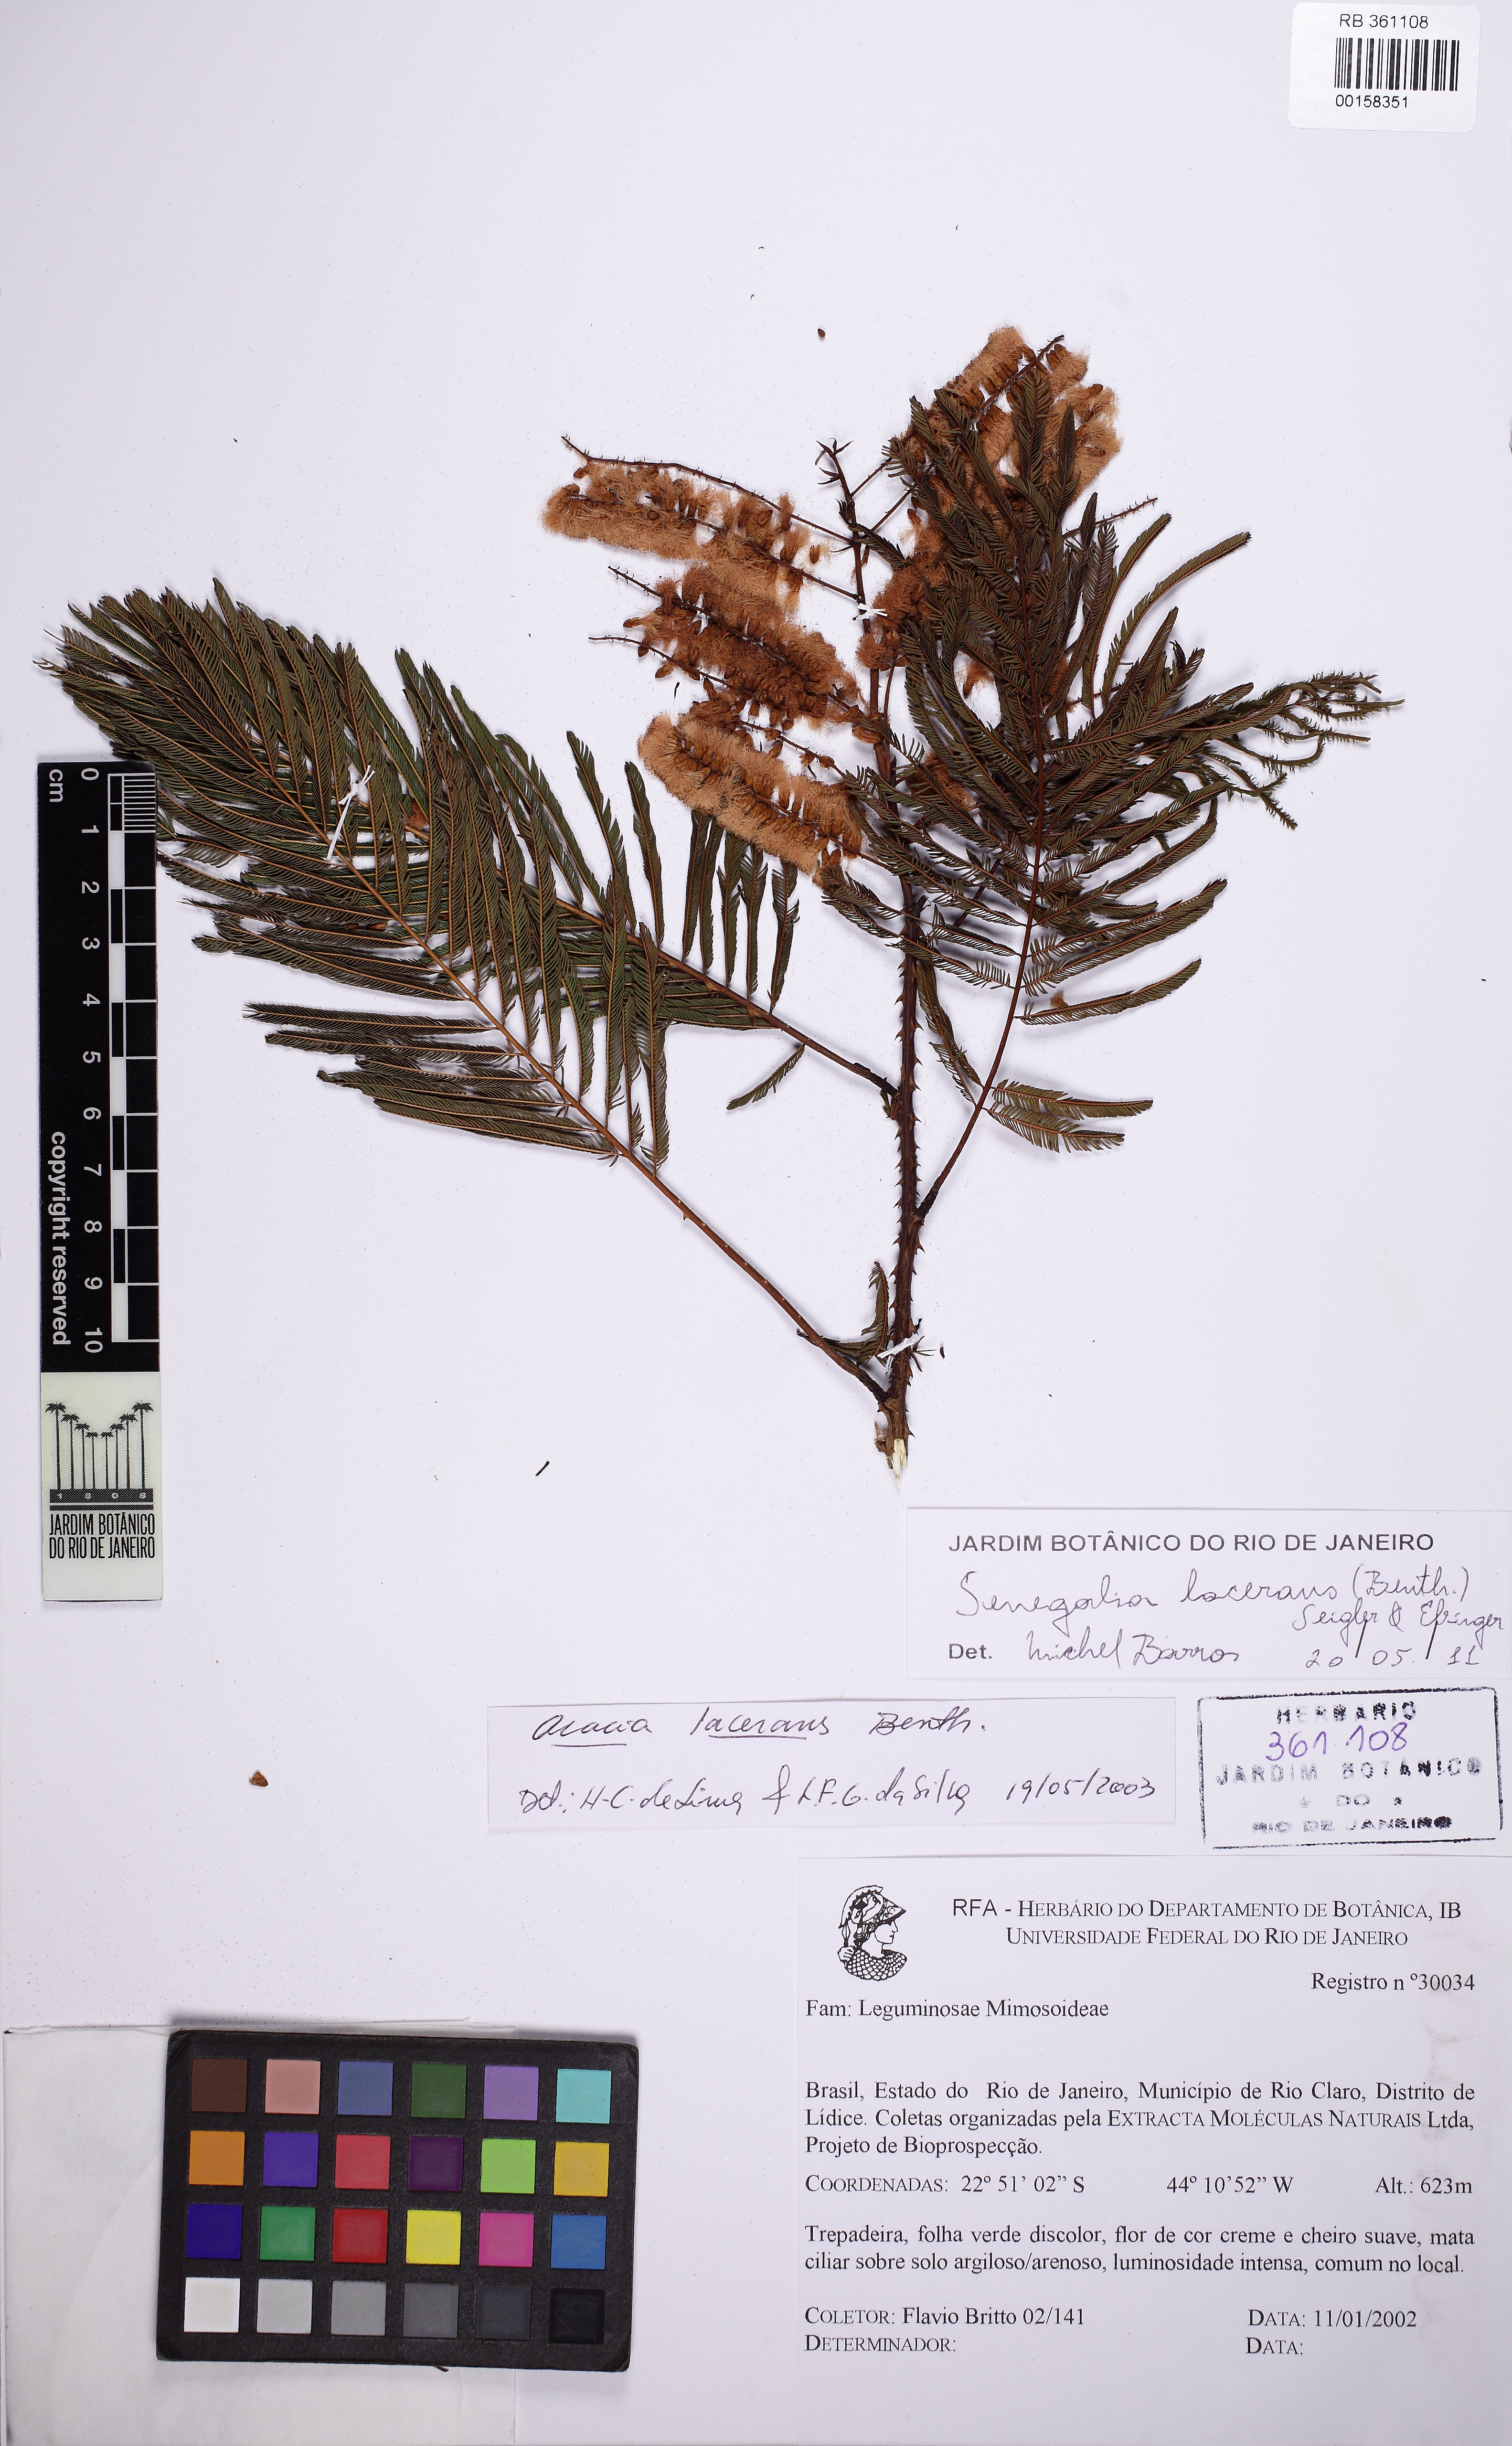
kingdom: Plantae
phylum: Tracheophyta
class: Magnoliopsida
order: Fabales
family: Fabaceae
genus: Senegalia
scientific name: Senegalia lacerans
